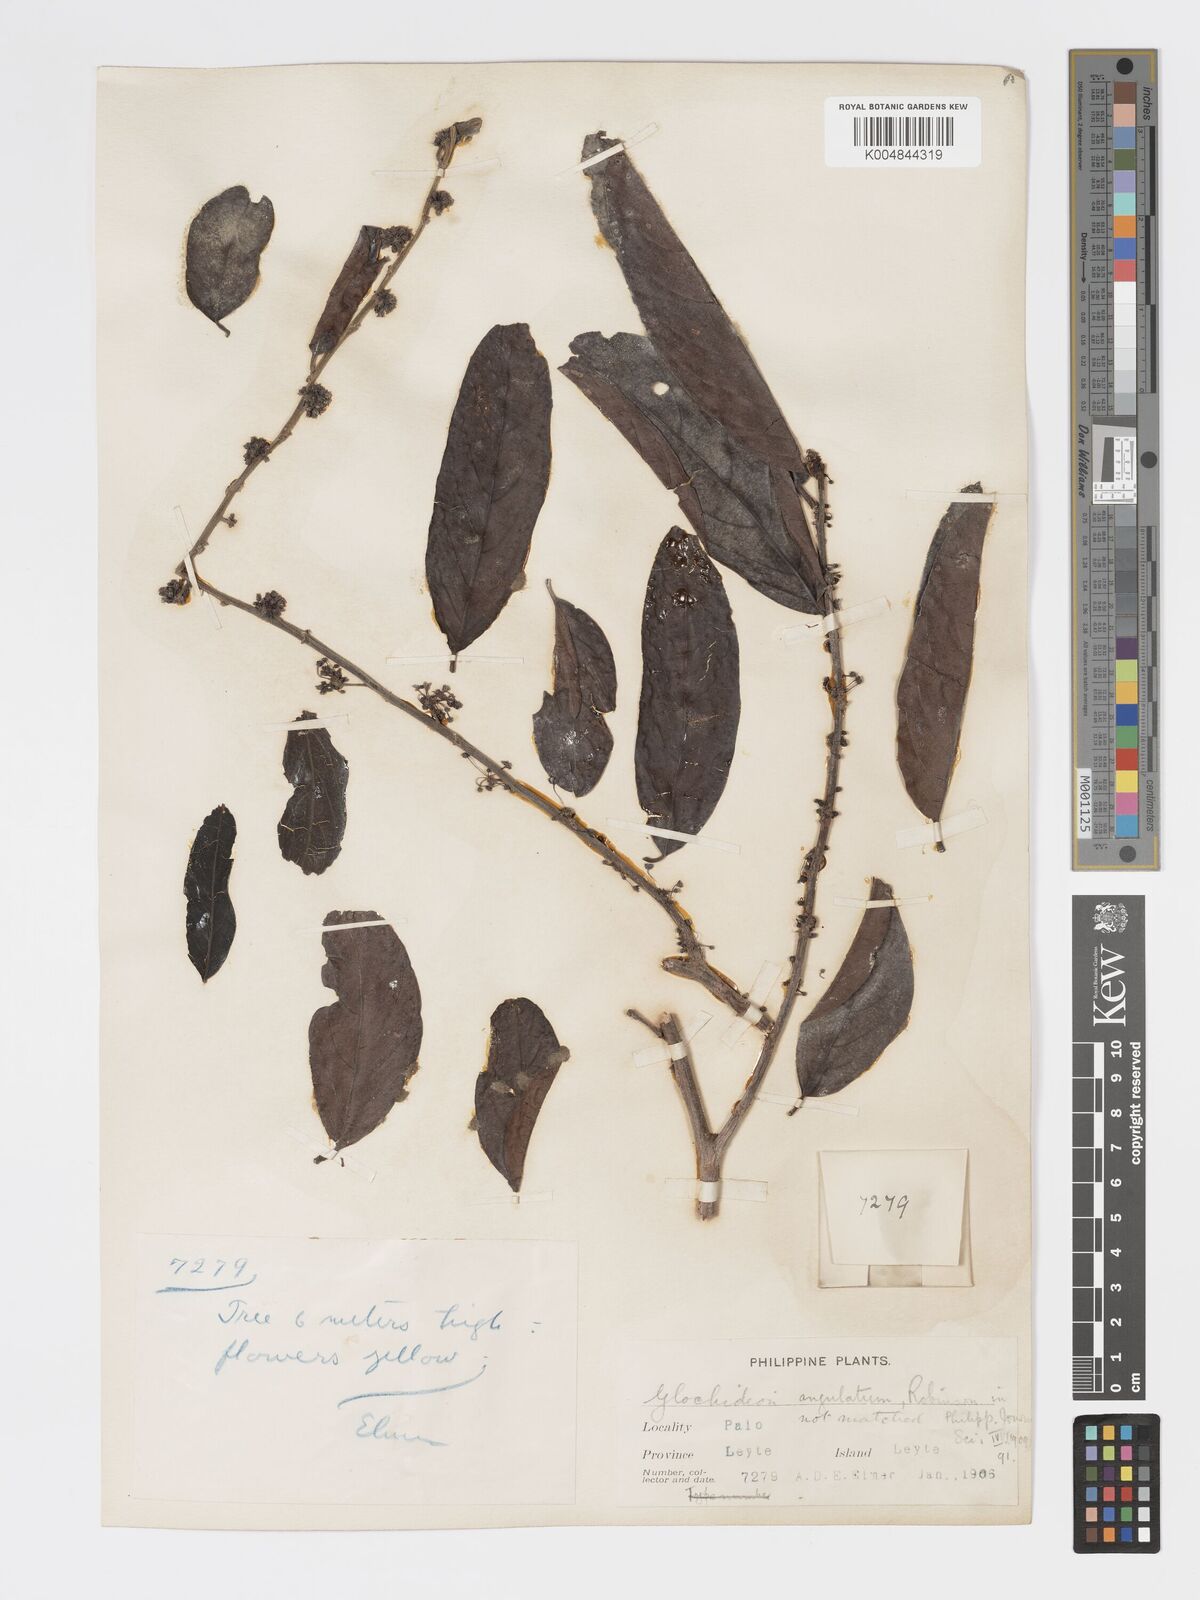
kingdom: Plantae
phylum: Tracheophyta
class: Magnoliopsida
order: Malpighiales
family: Phyllanthaceae
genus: Glochidion
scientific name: Glochidion angulatum
